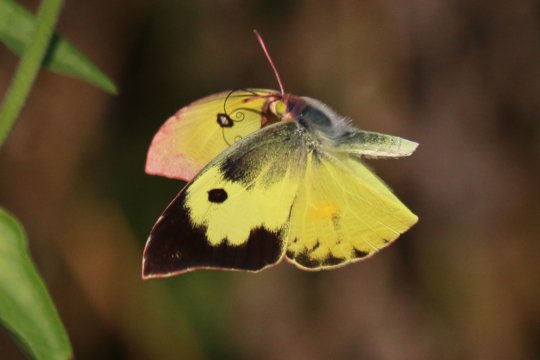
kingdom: Animalia
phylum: Arthropoda
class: Insecta
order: Lepidoptera
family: Pieridae
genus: Zerene
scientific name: Zerene cesonia
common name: Southern Dogface
